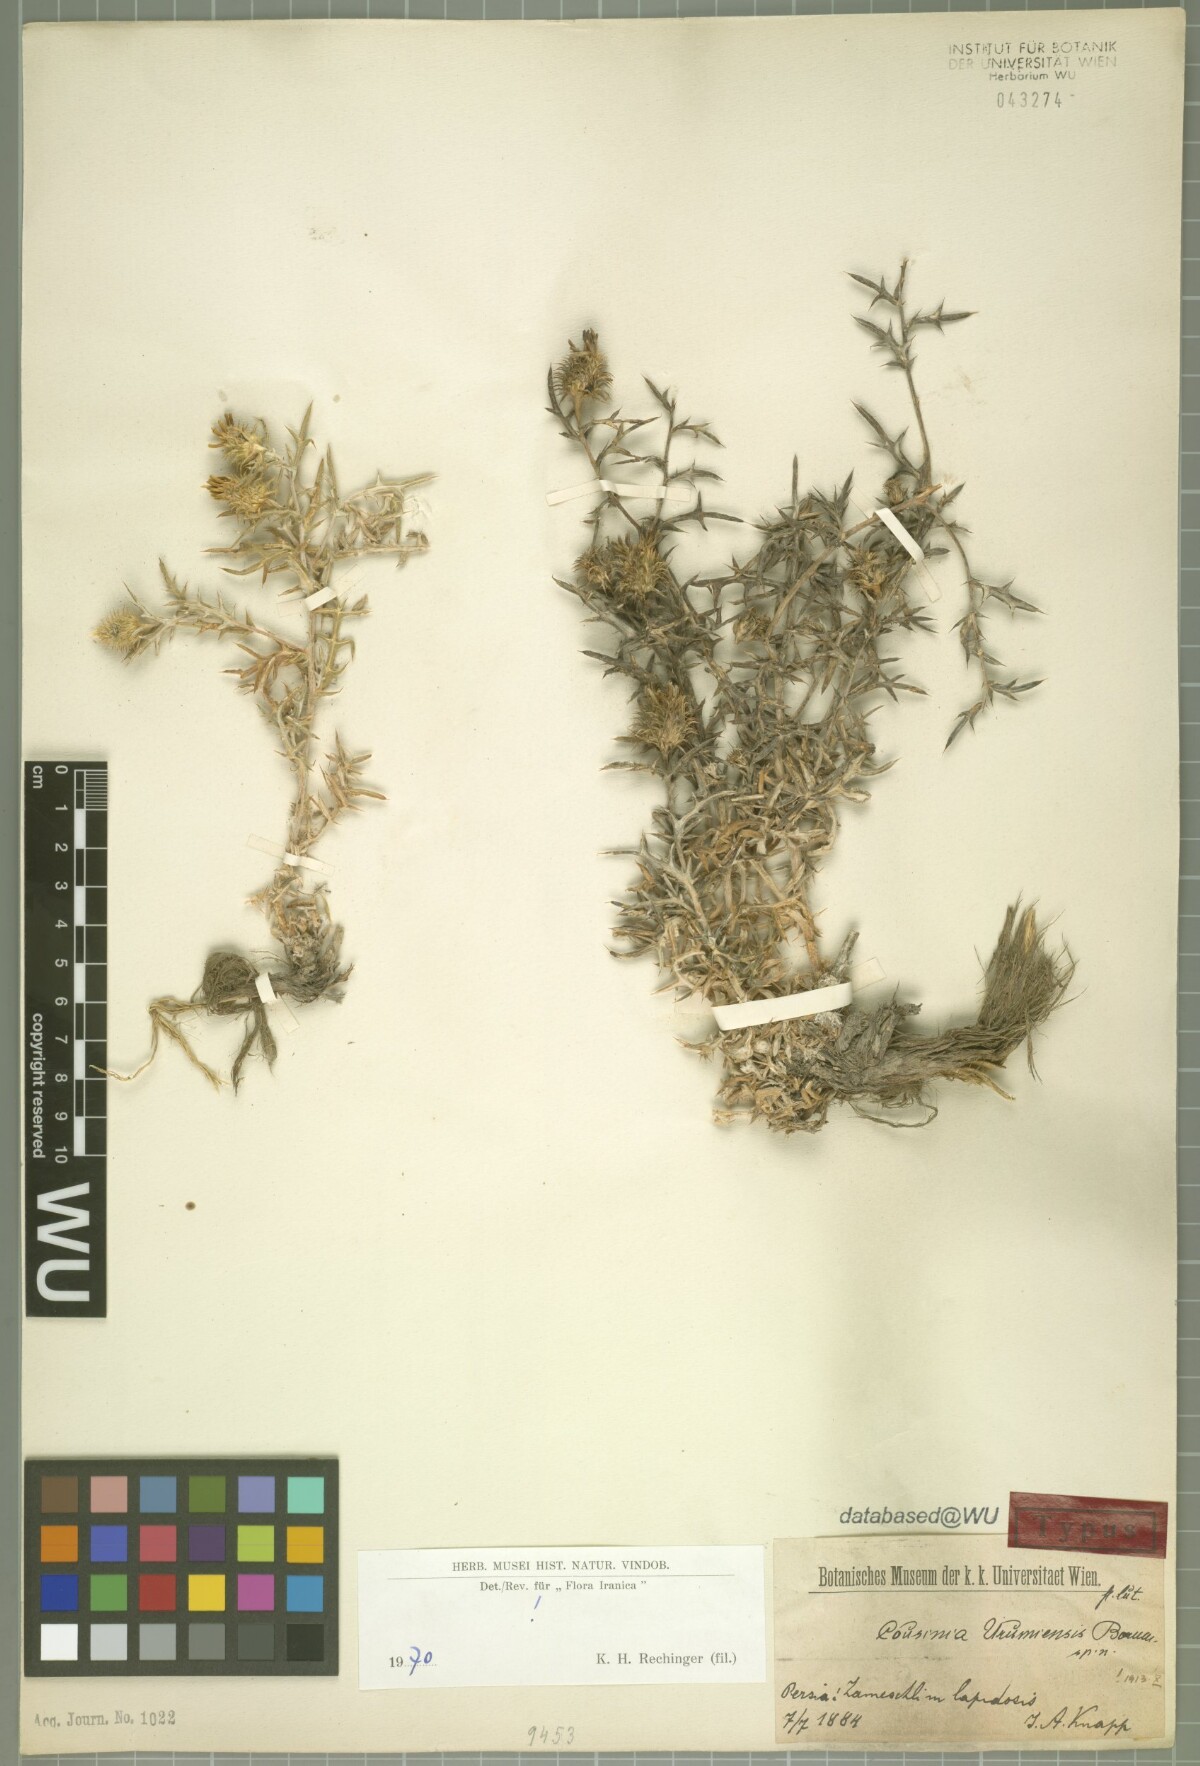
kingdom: Plantae
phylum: Tracheophyta
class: Magnoliopsida
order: Asterales
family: Asteraceae
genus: Cousinia
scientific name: Cousinia urumiensis
